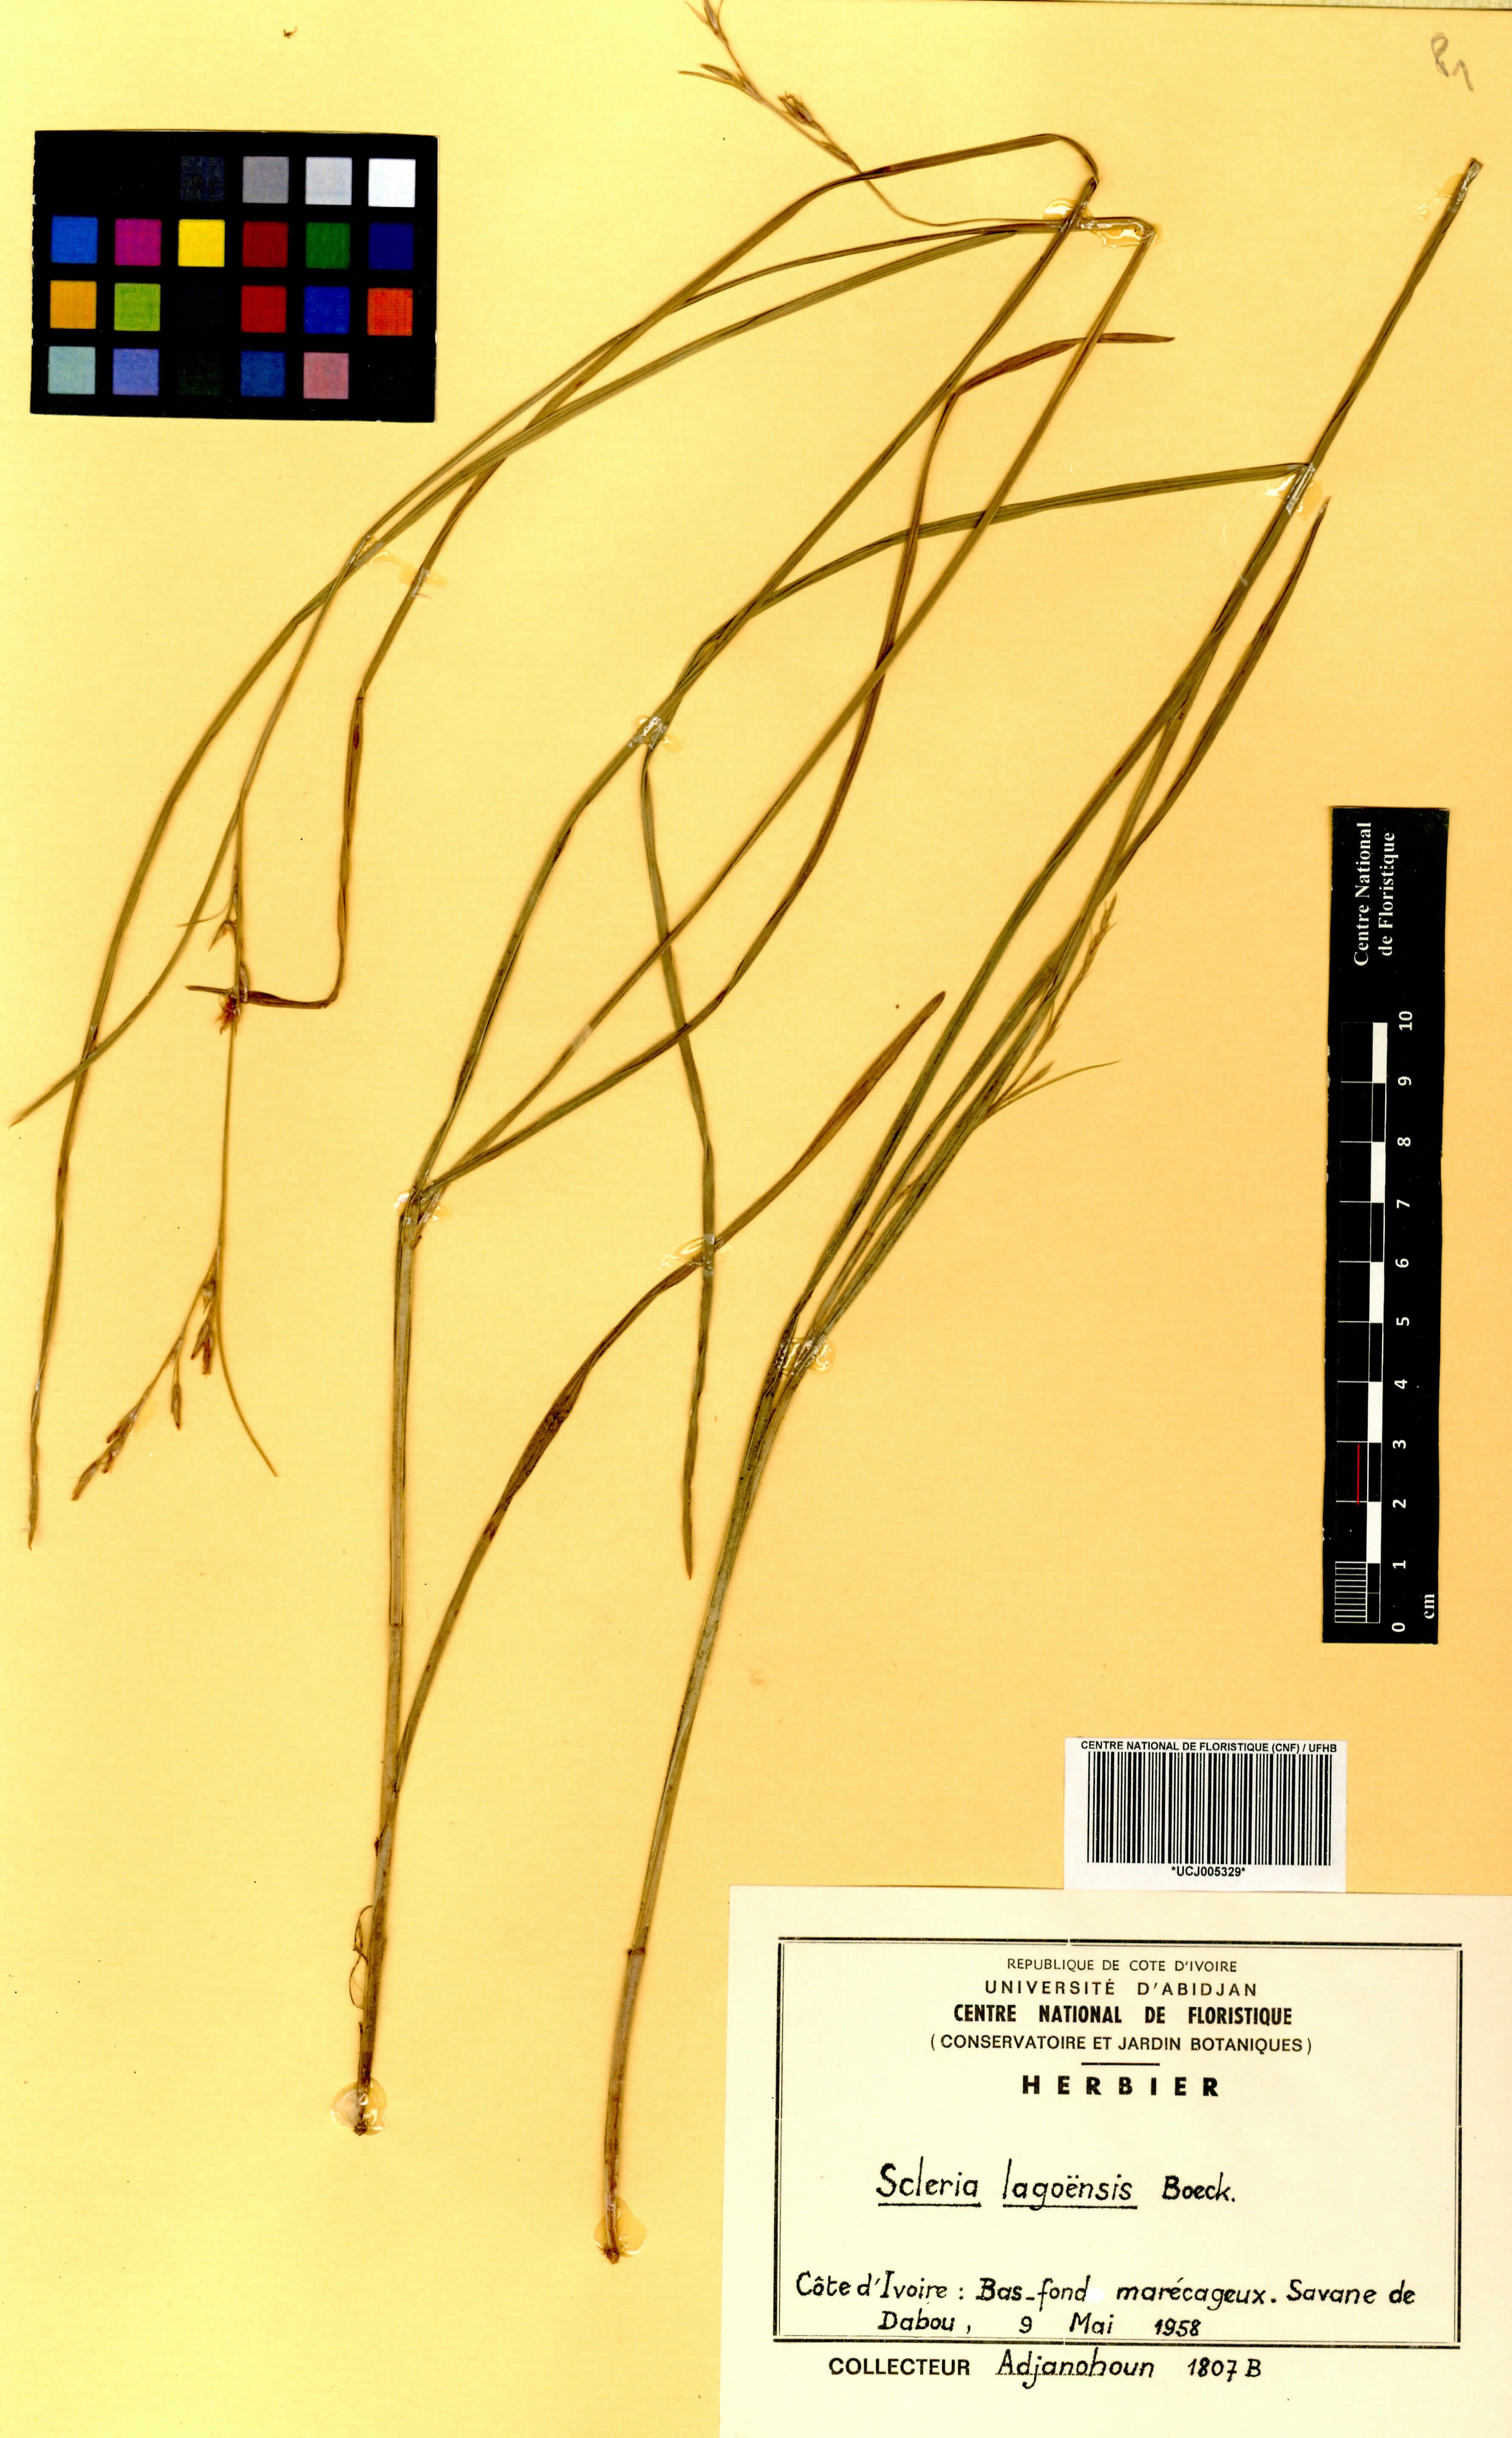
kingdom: Plantae
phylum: Tracheophyta
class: Liliopsida
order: Poales
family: Cyperaceae
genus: Scleria
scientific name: Scleria lagoensis
